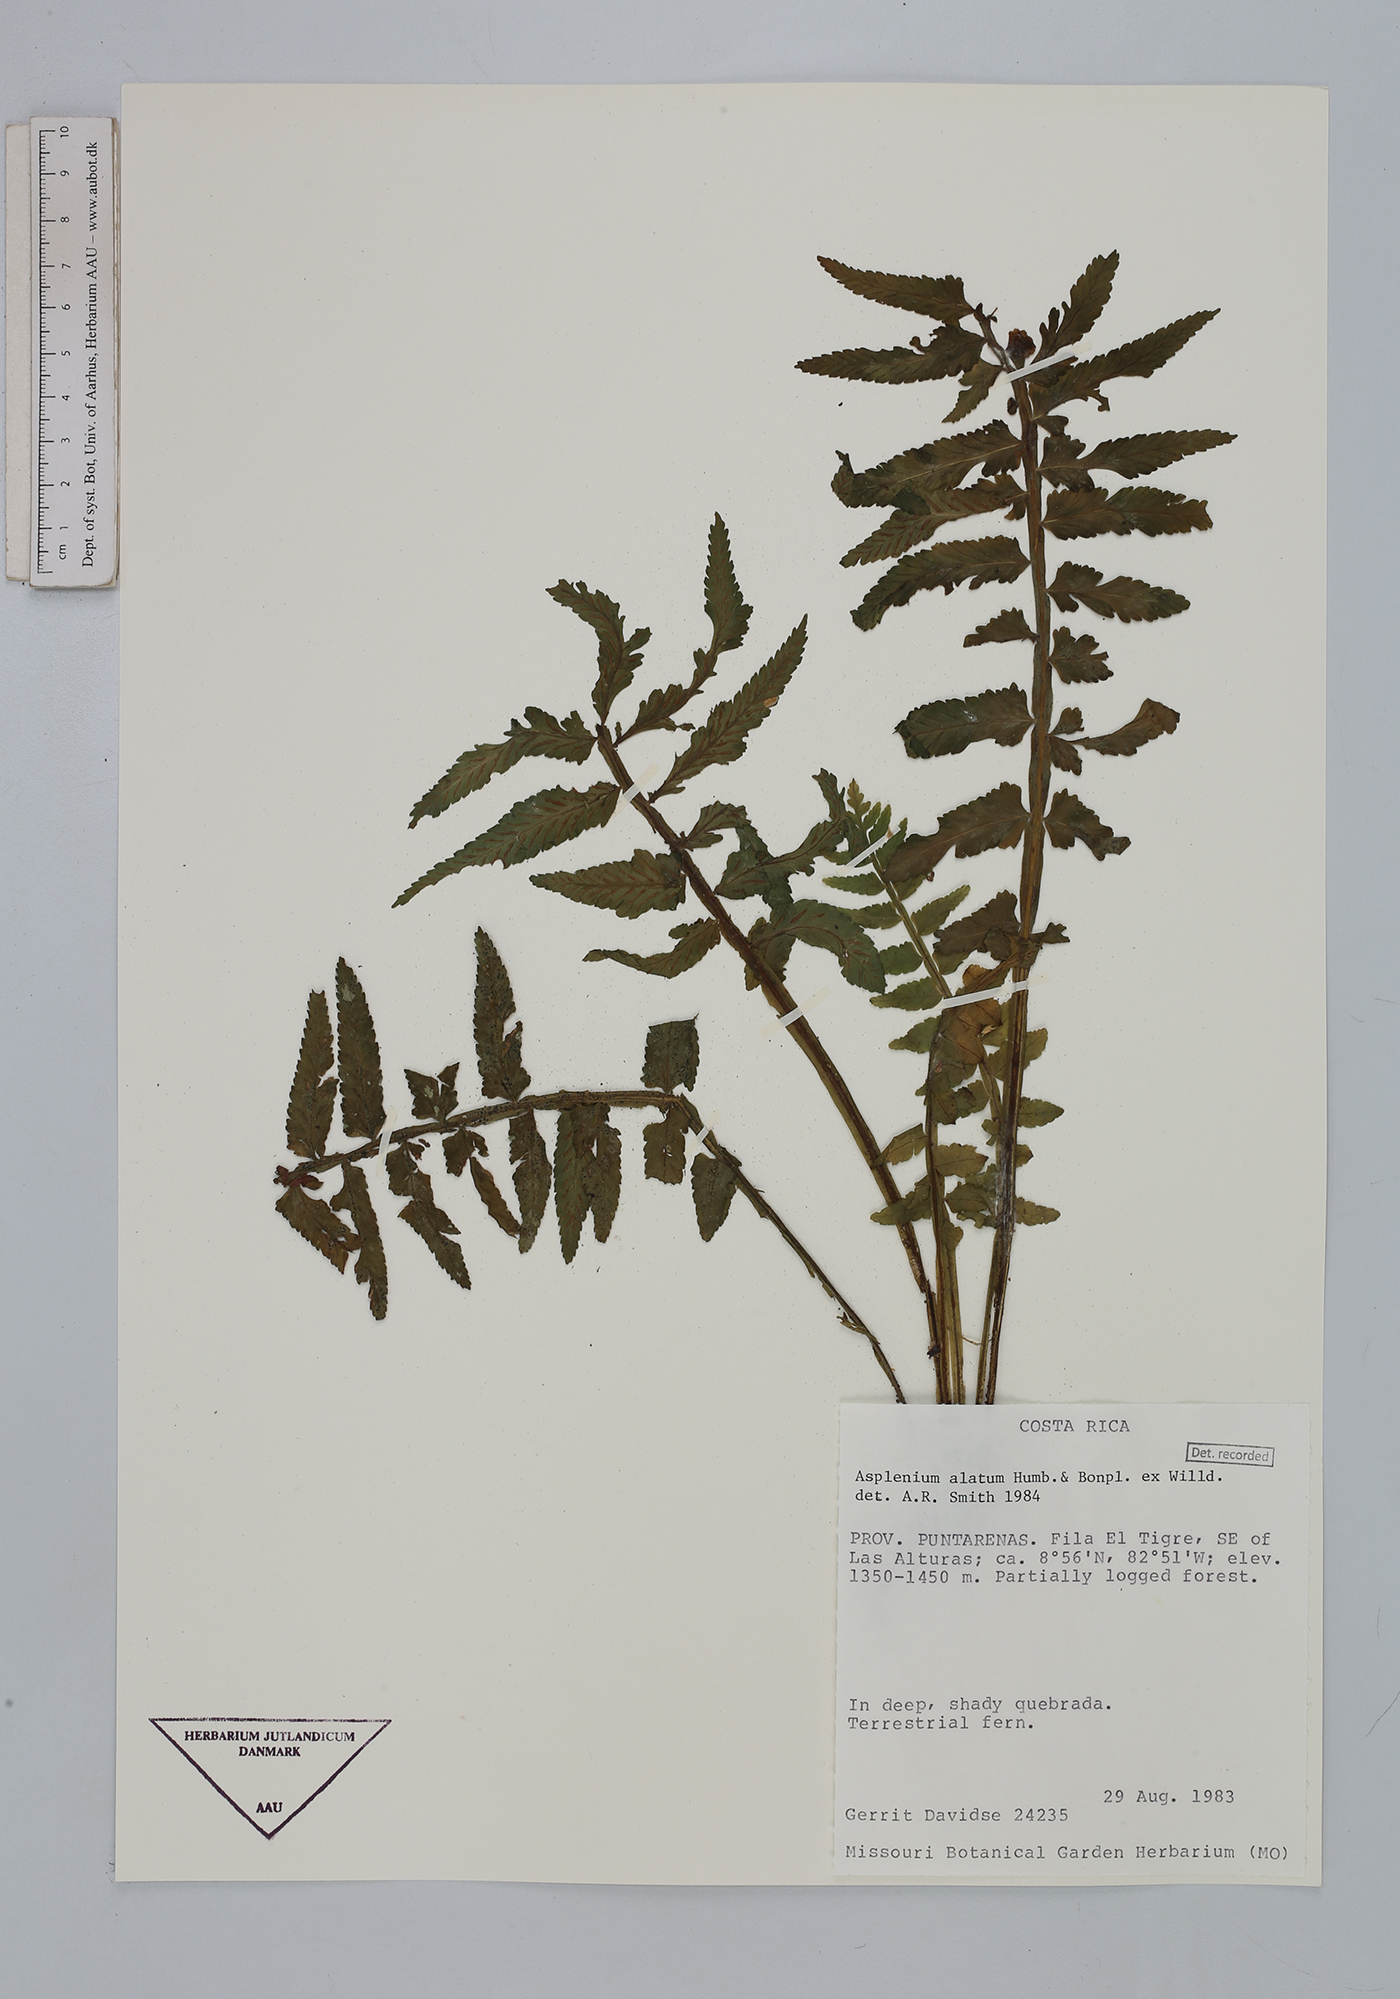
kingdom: Plantae
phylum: Tracheophyta
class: Polypodiopsida
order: Polypodiales
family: Aspleniaceae
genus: Asplenium
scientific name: Asplenium alatum
